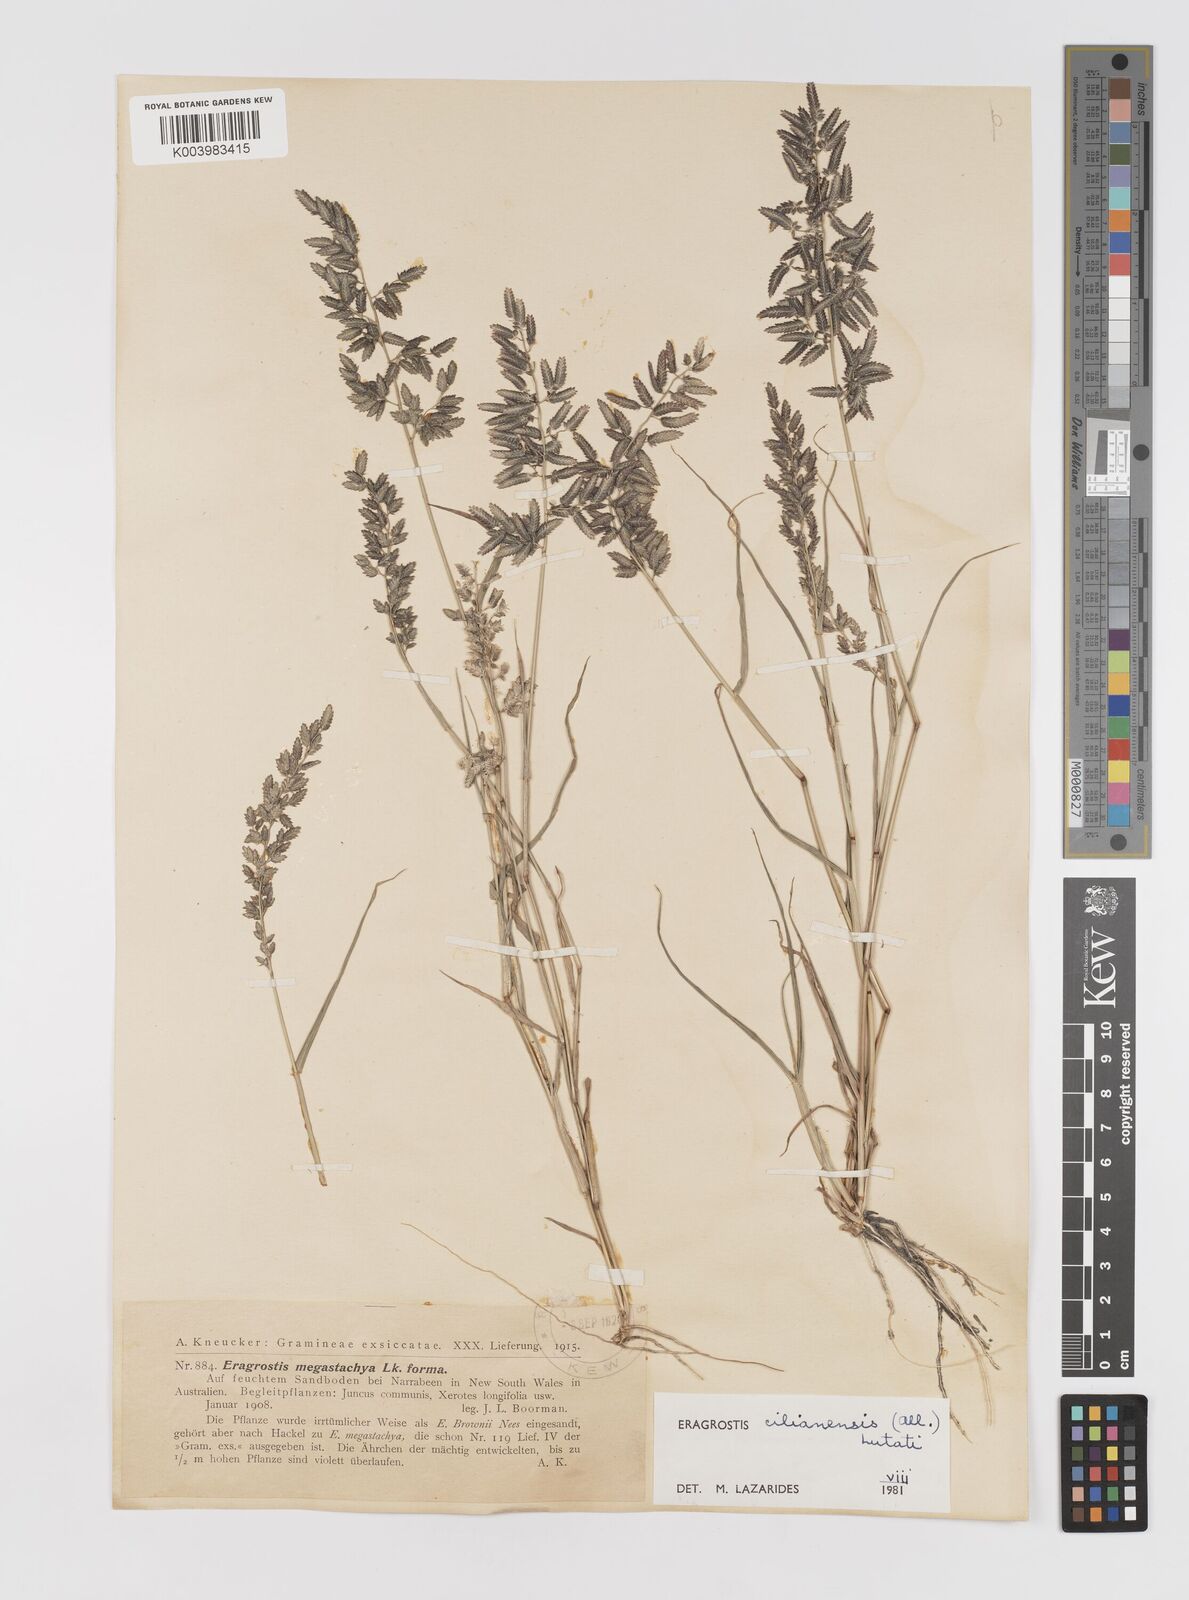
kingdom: Plantae
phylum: Tracheophyta
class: Liliopsida
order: Poales
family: Poaceae
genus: Eragrostis
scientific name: Eragrostis cilianensis
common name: Stinkgrass
